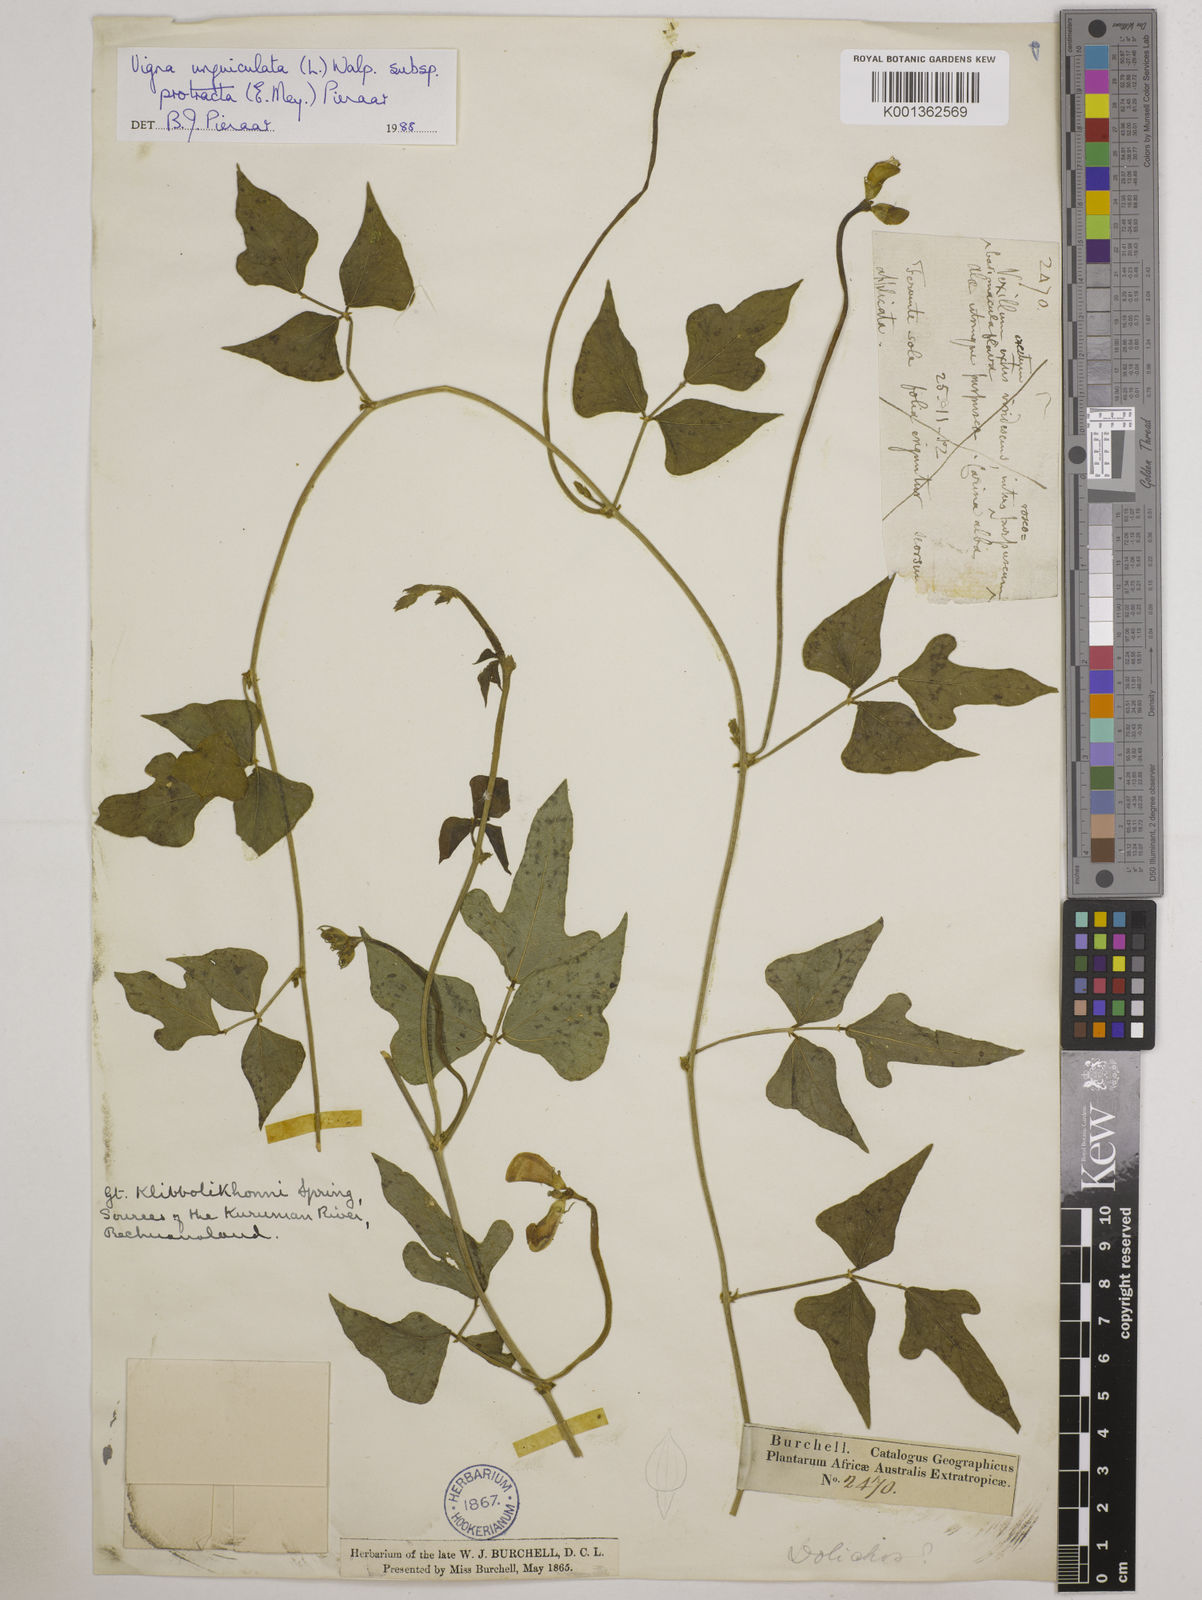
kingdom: Plantae
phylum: Tracheophyta
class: Magnoliopsida
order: Fabales
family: Fabaceae
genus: Vigna
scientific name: Vigna unguiculata
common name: Cowpea
